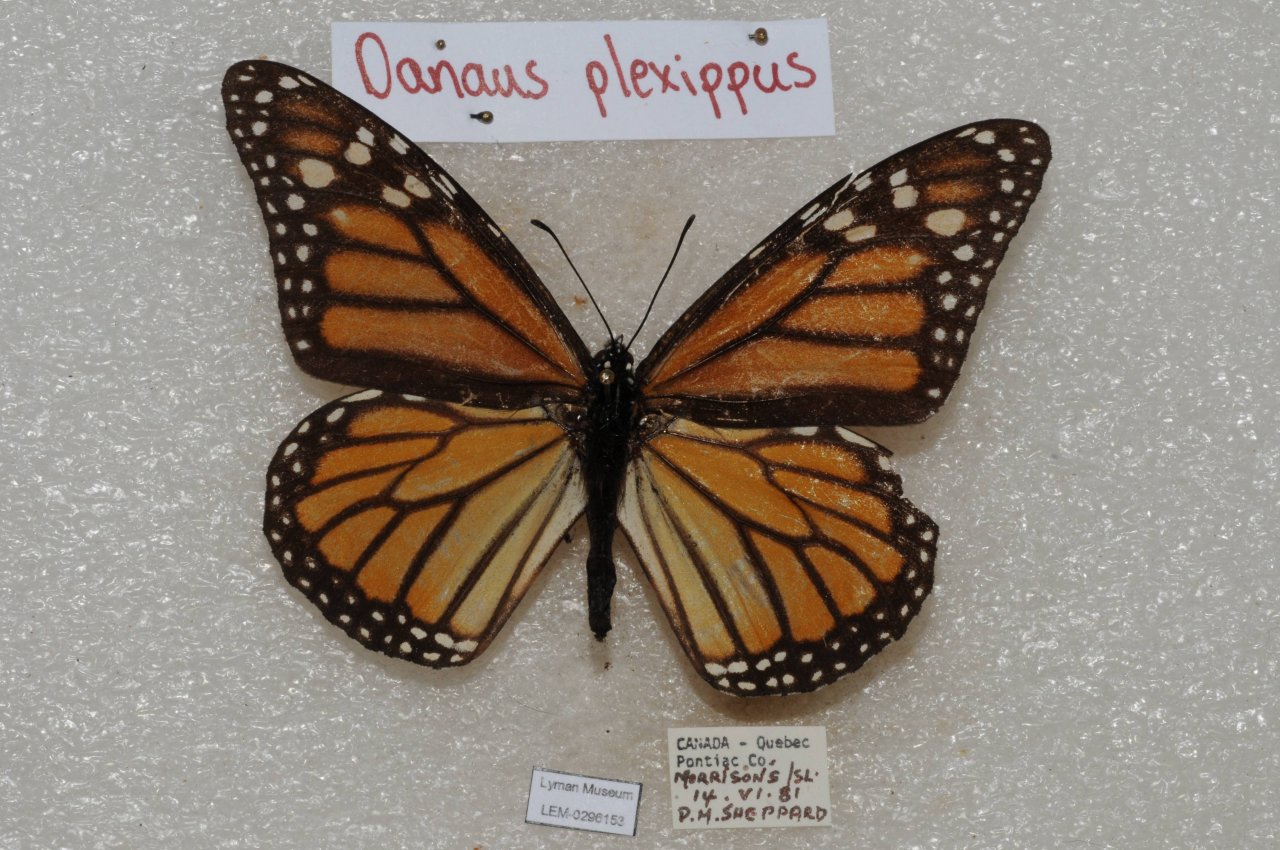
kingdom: Animalia
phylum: Arthropoda
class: Insecta
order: Lepidoptera
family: Nymphalidae
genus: Danaus
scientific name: Danaus plexippus
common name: Monarch
